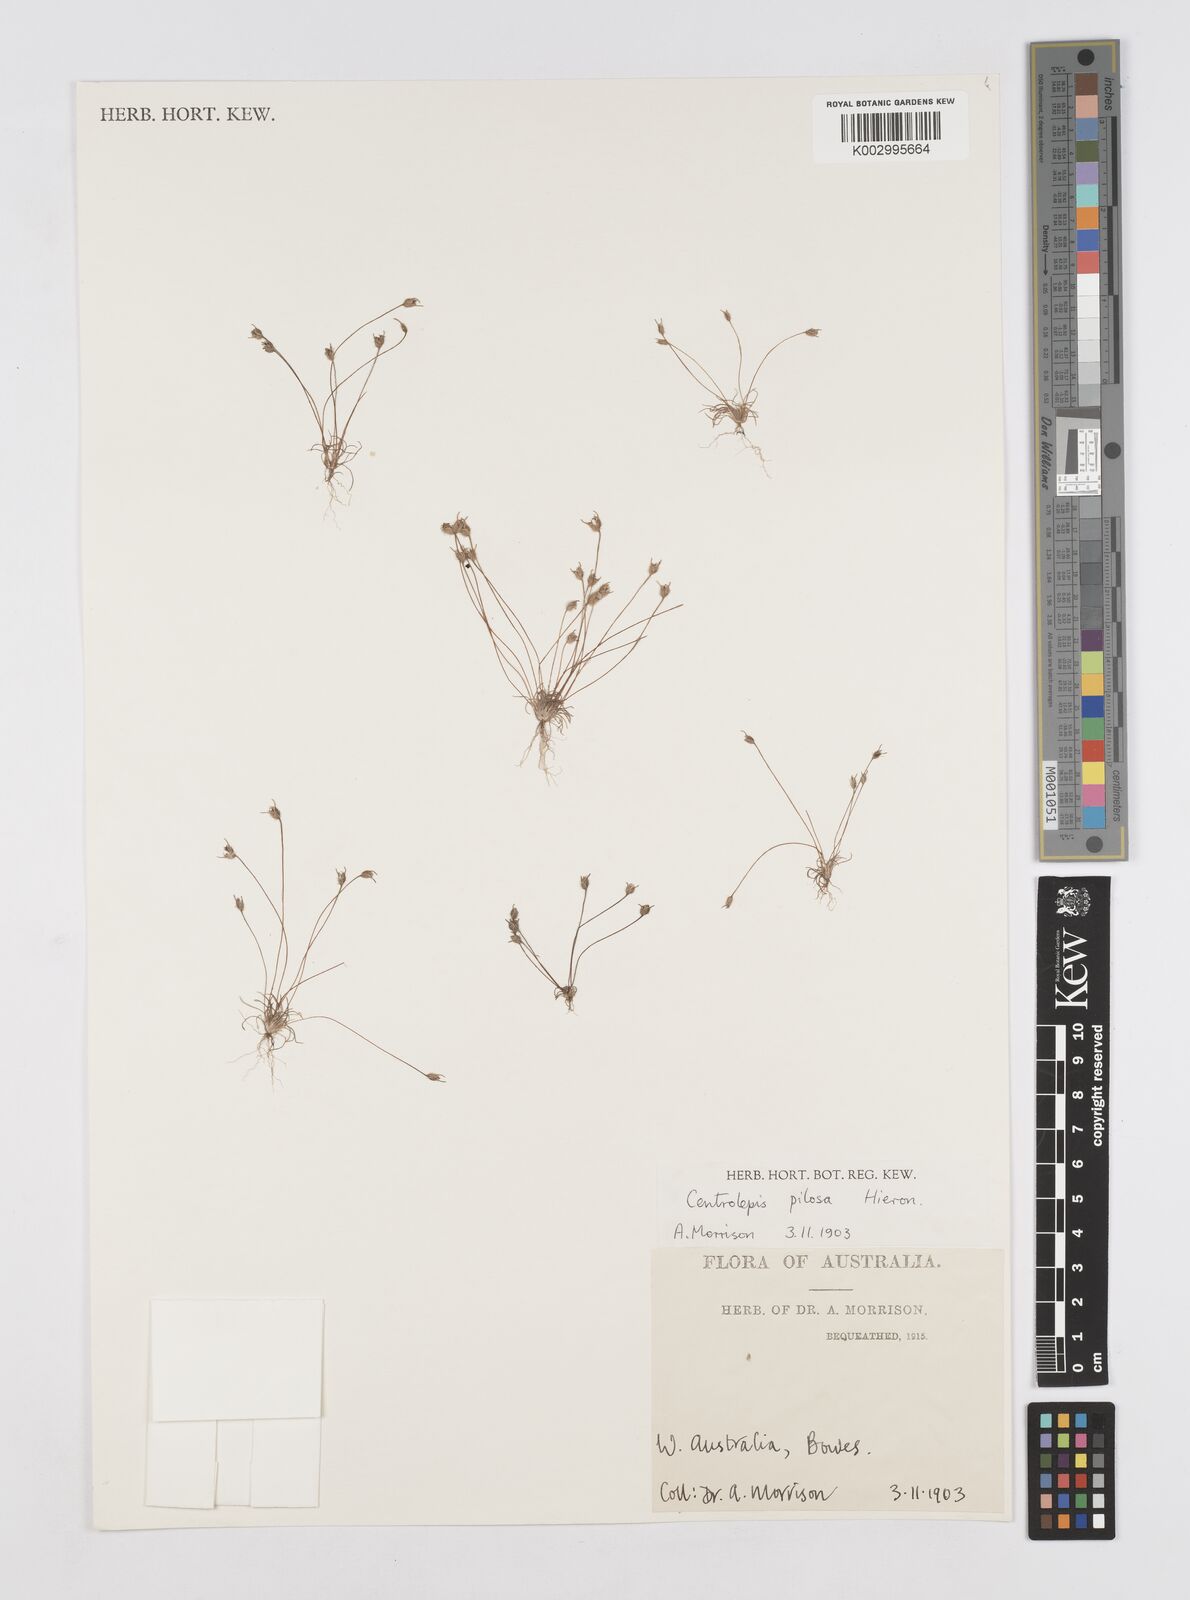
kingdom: Plantae
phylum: Tracheophyta
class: Liliopsida
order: Poales
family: Restionaceae
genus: Centrolepis
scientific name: Centrolepis pilosa
